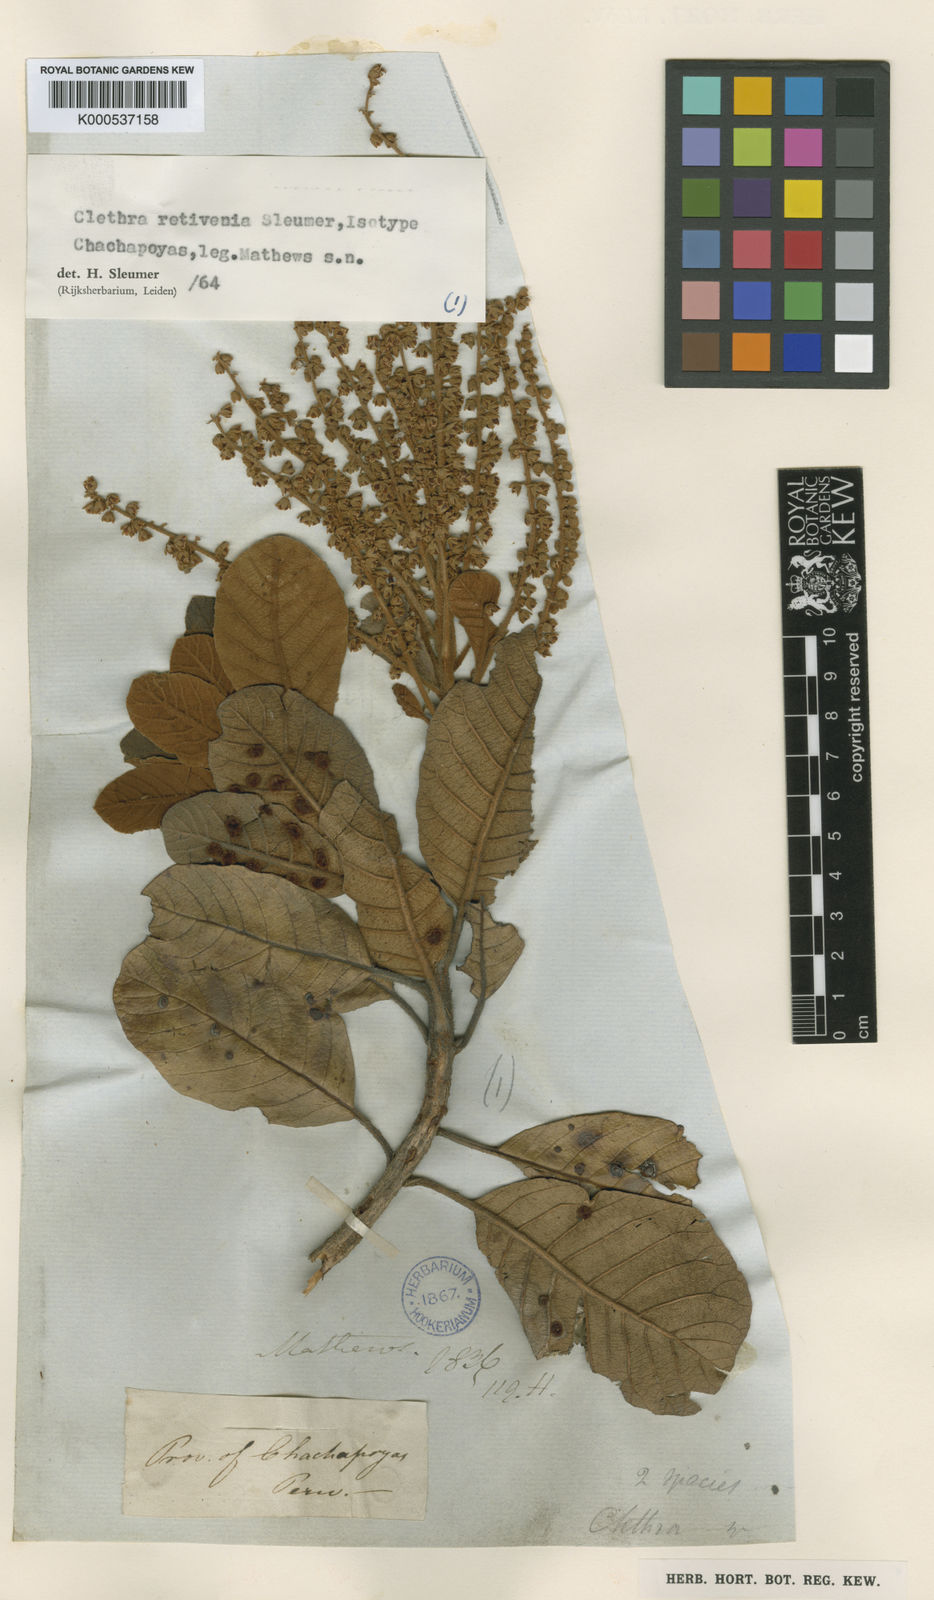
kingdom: Plantae
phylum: Tracheophyta
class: Magnoliopsida
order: Ericales
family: Clethraceae
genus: Clethra
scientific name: Clethra retivenia
